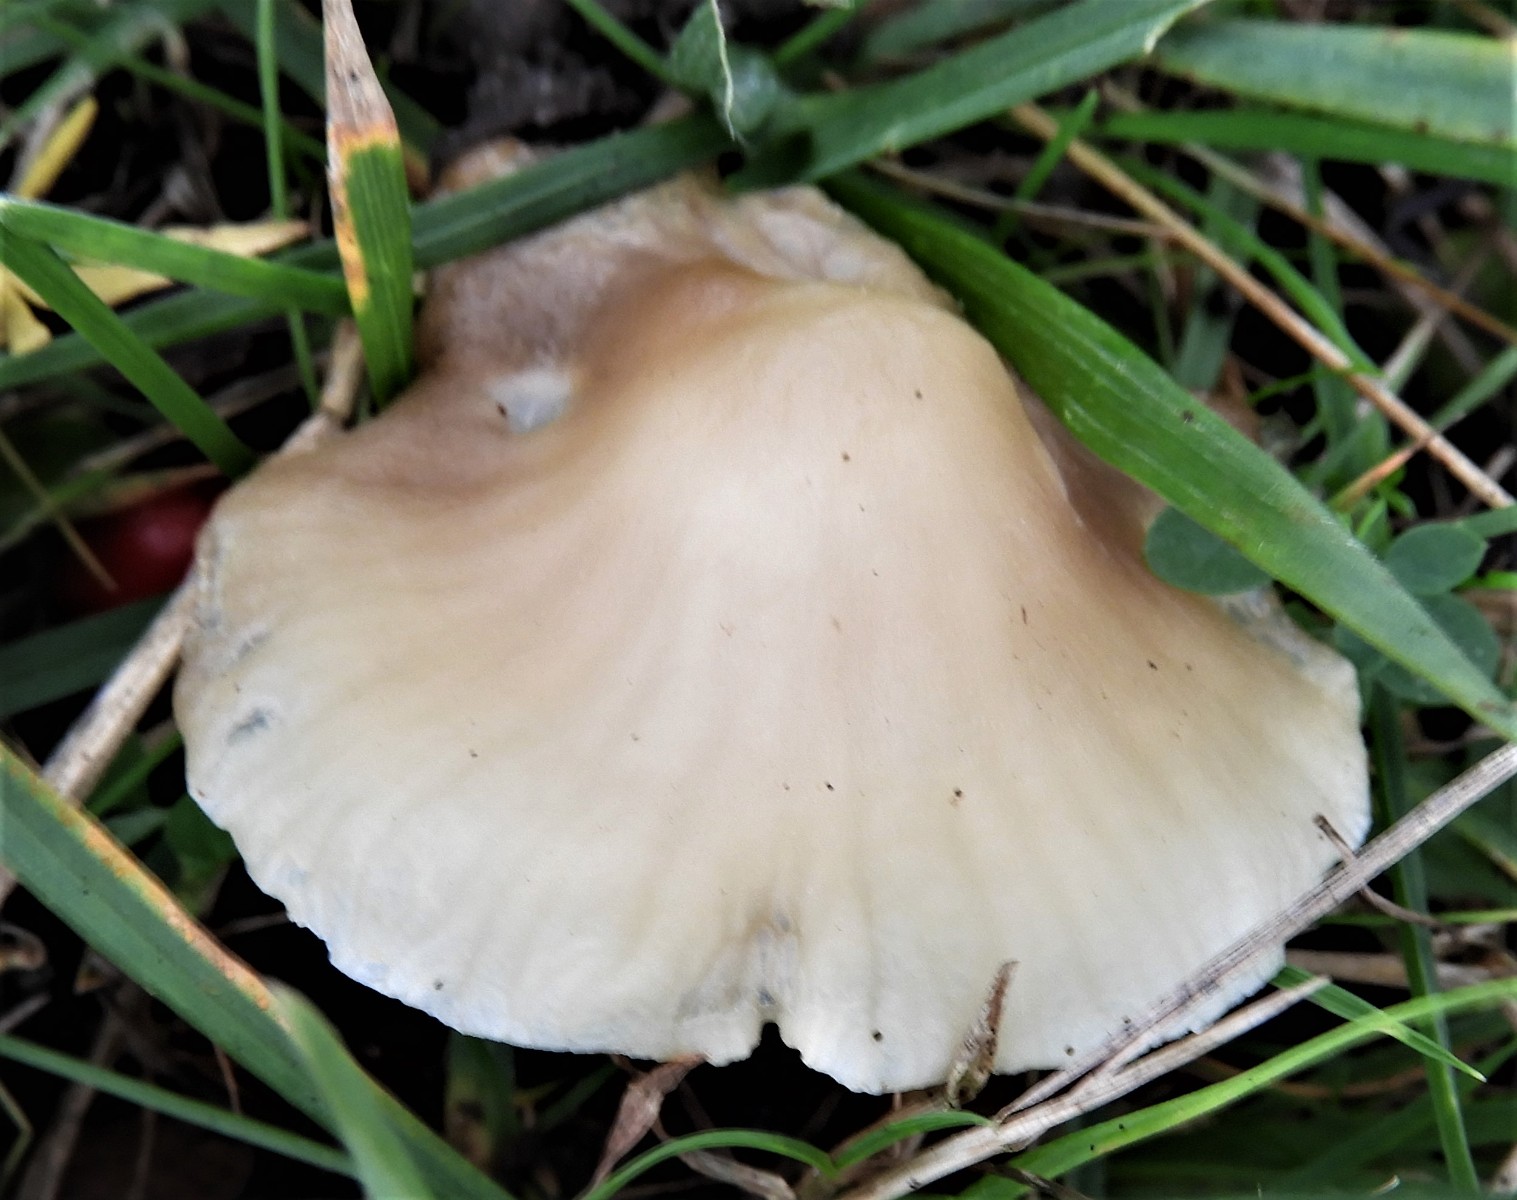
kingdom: Fungi
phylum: Basidiomycota
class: Agaricomycetes
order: Agaricales
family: Hygrophoraceae
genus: Cuphophyllus
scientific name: Cuphophyllus virgineus
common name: isabella-vokshat
